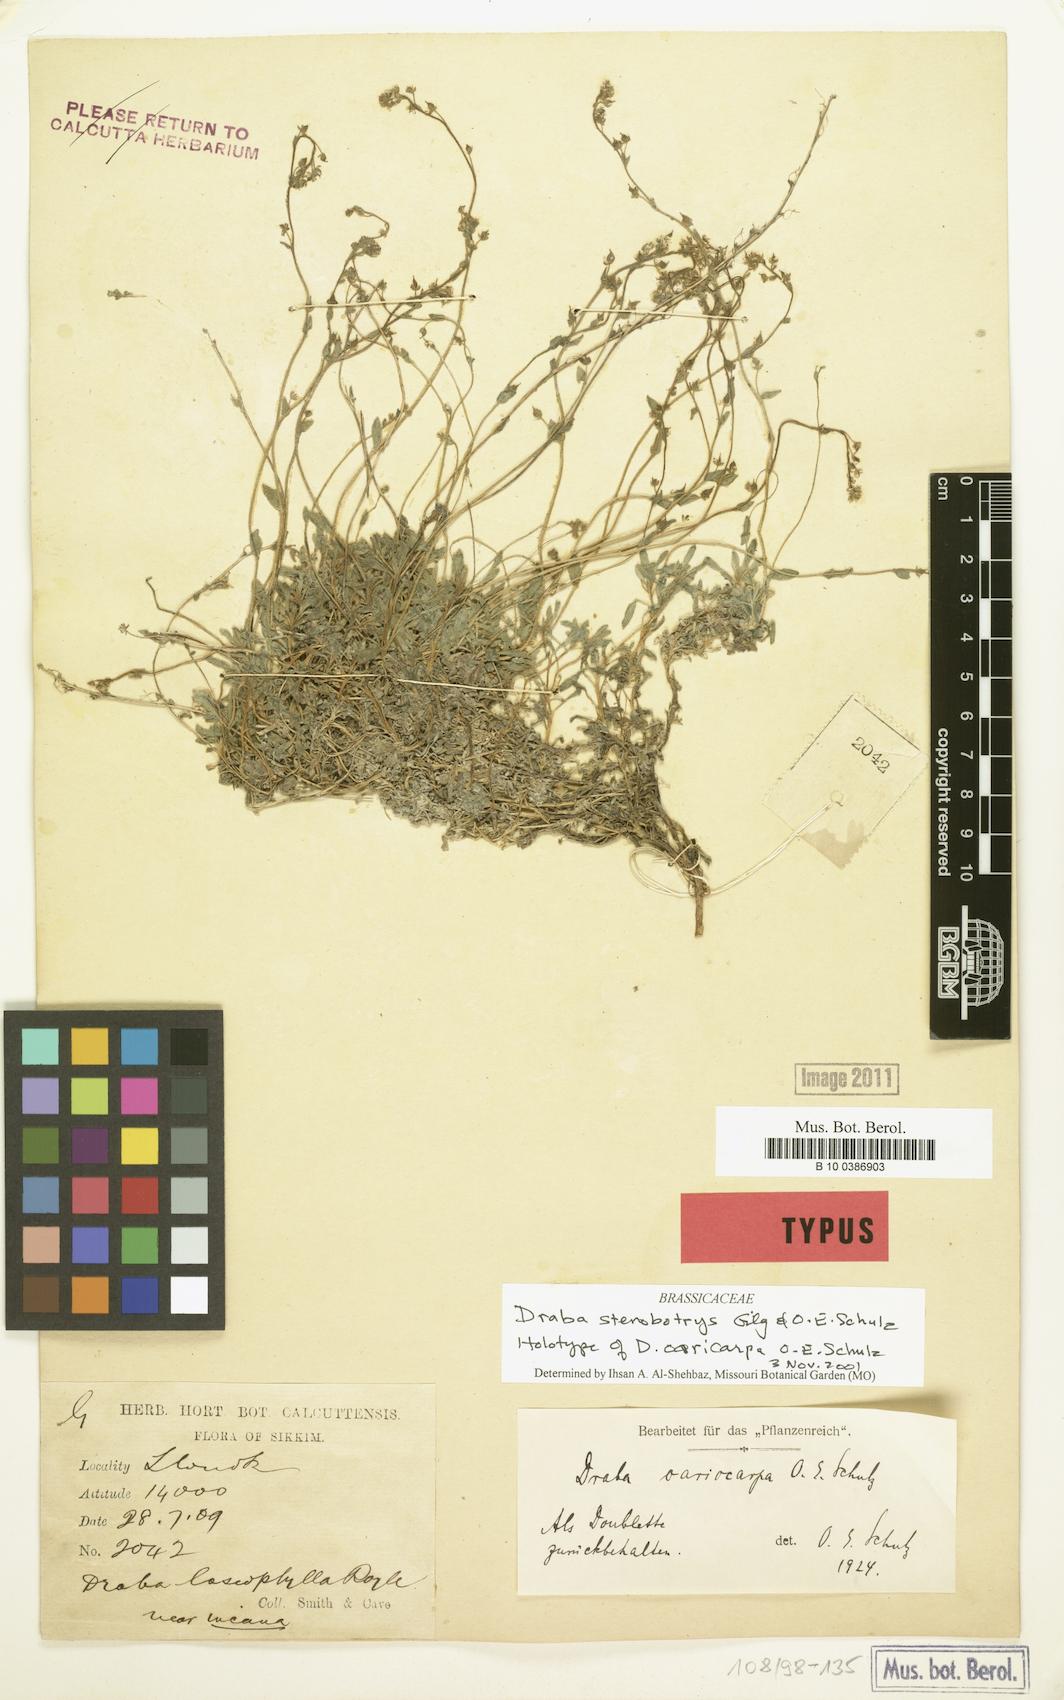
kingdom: Plantae
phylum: Tracheophyta
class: Magnoliopsida
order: Brassicales
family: Brassicaceae
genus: Draba
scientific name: Draba stenobotrys
